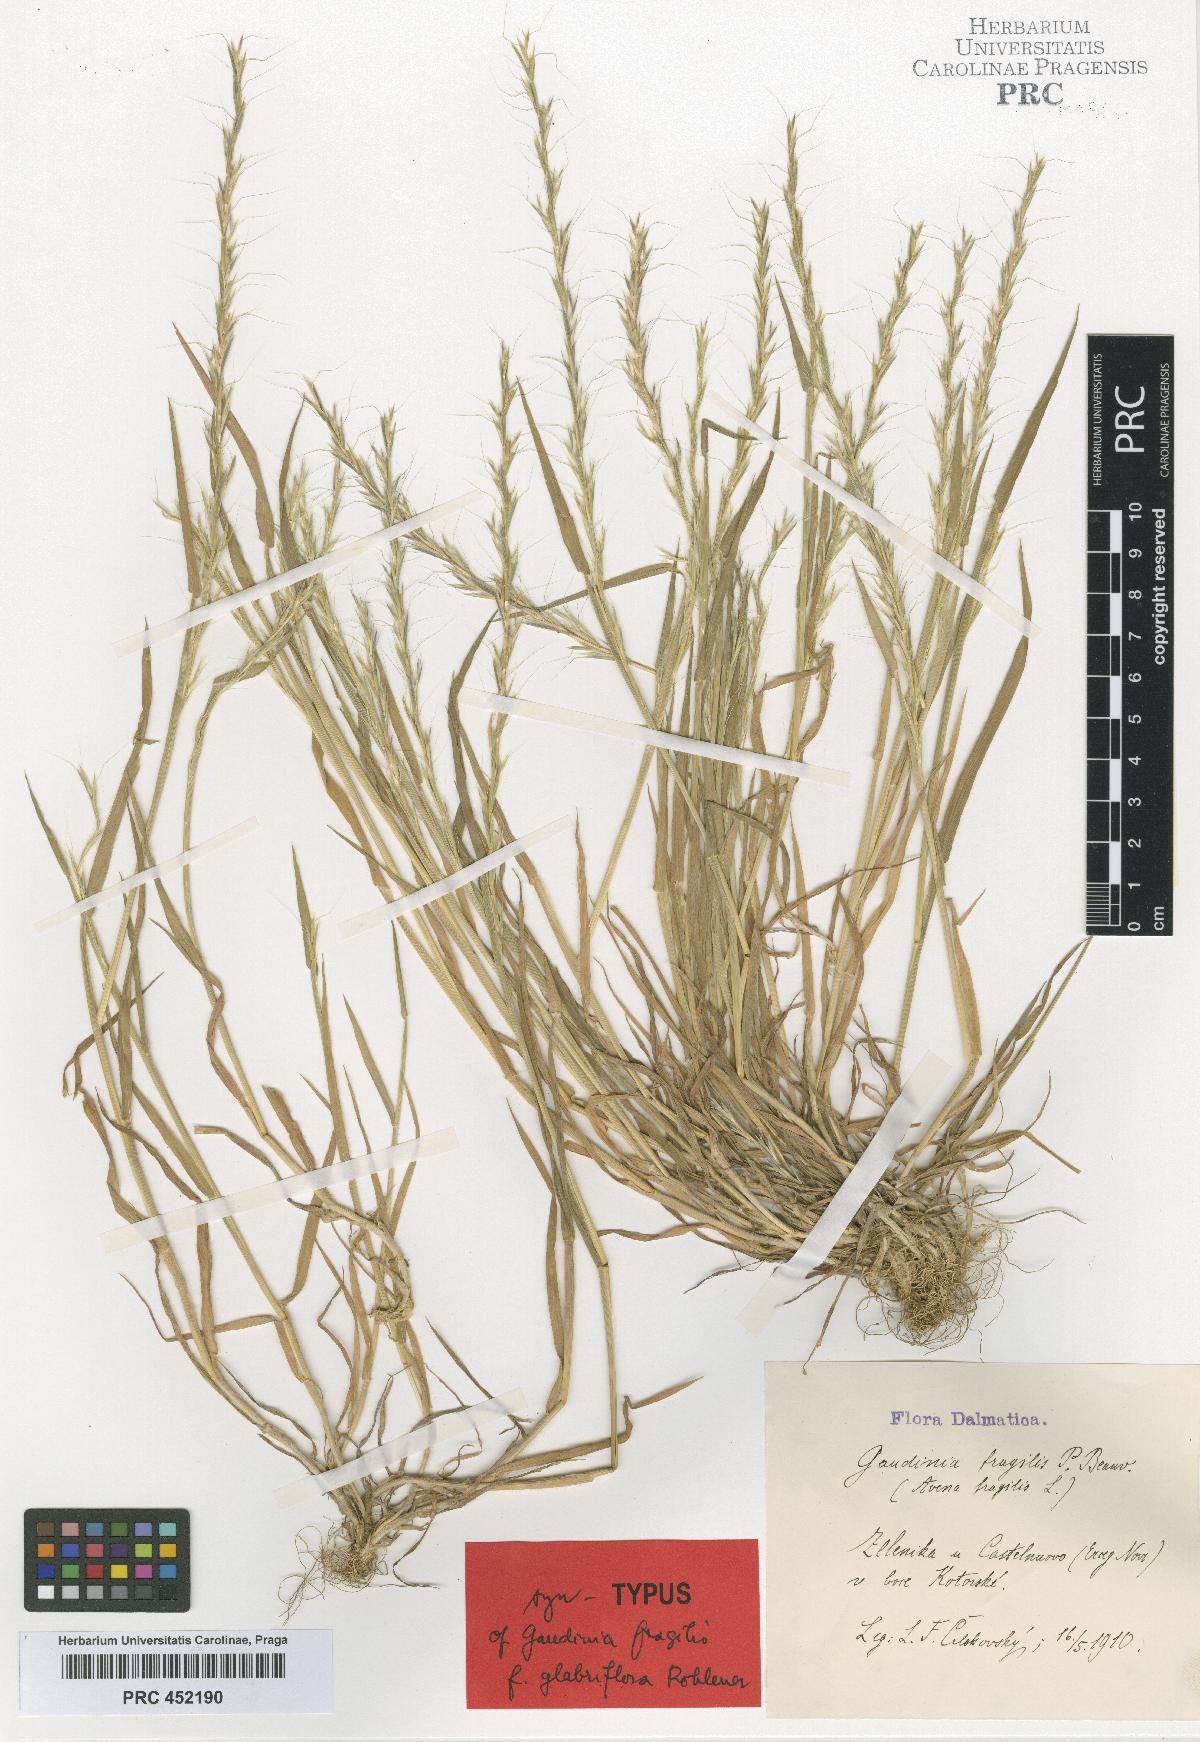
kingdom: Plantae
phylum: Tracheophyta
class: Liliopsida
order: Poales
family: Poaceae
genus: Gaudinia
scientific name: Gaudinia fragilis
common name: French oat-grass
